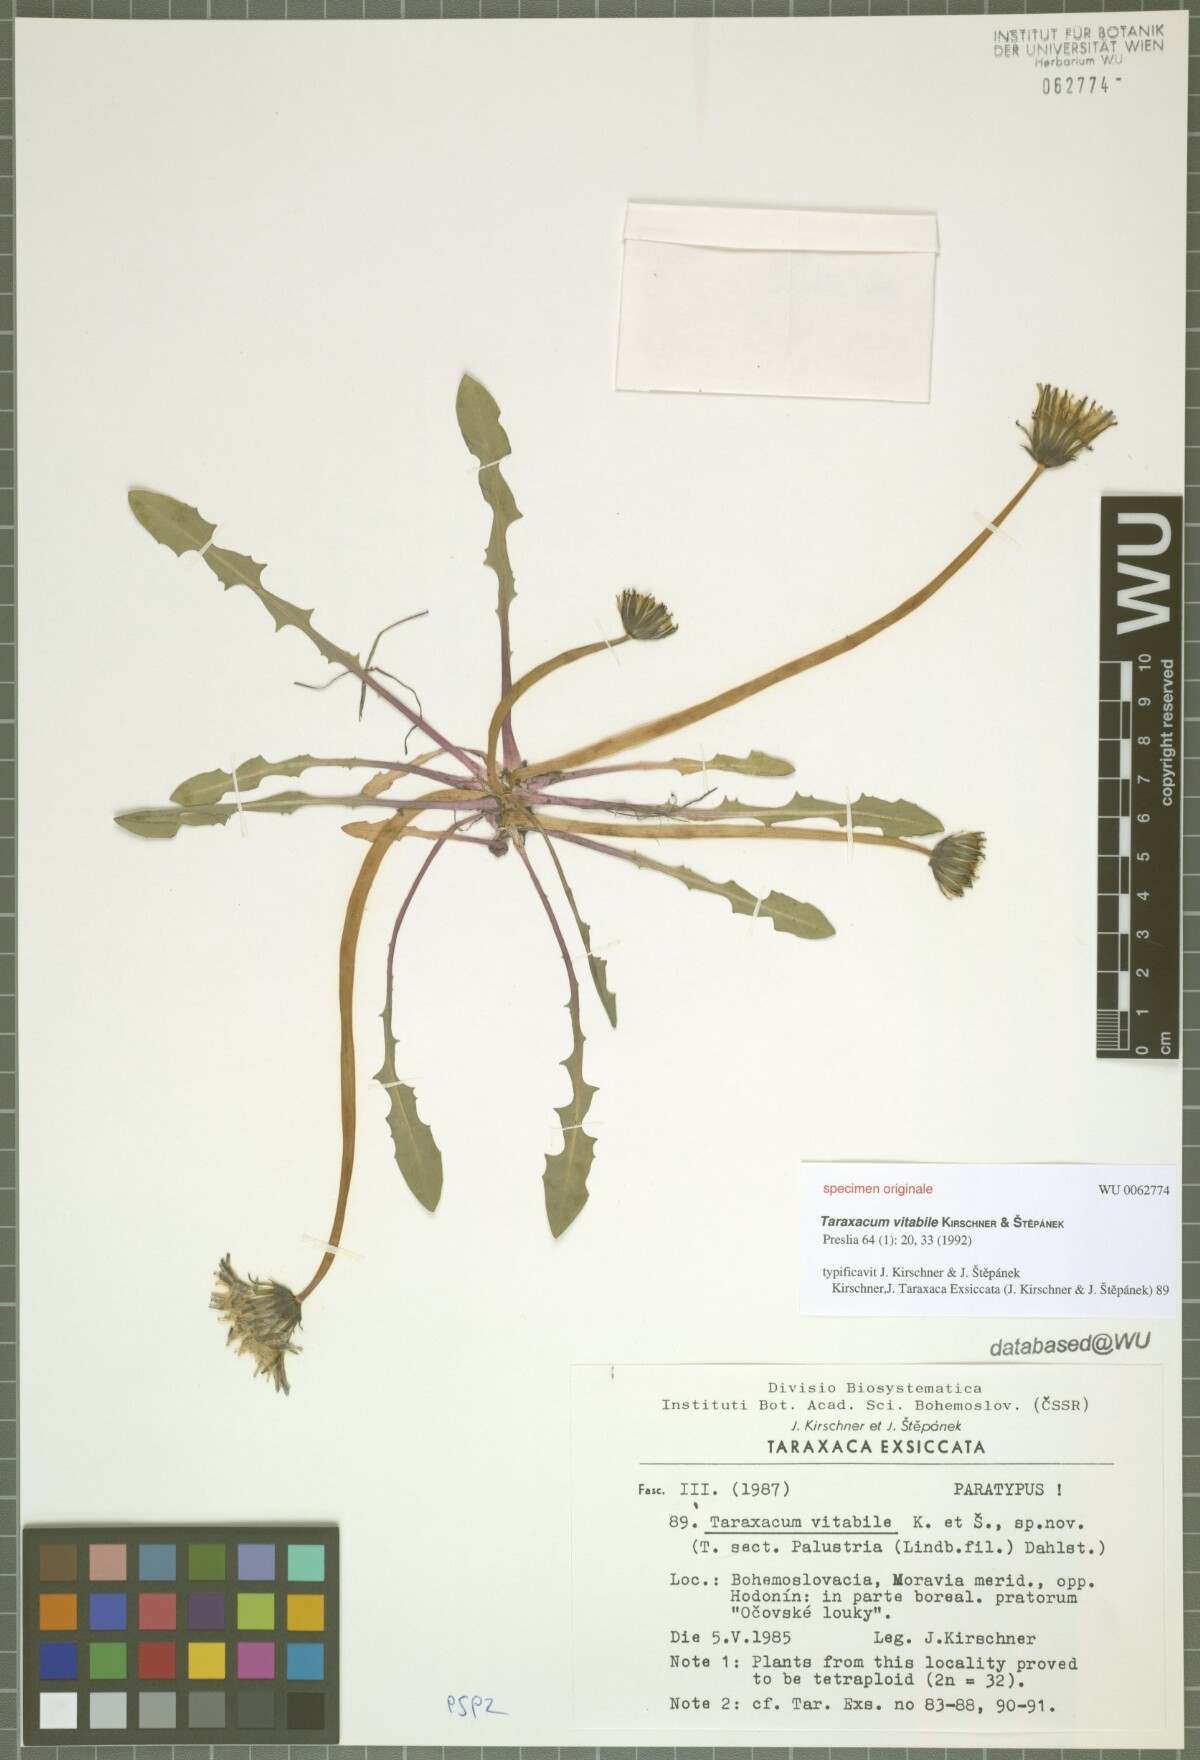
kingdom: Plantae
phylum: Tracheophyta
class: Magnoliopsida
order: Asterales
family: Asteraceae
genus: Taraxacum
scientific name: Taraxacum vindobonense
